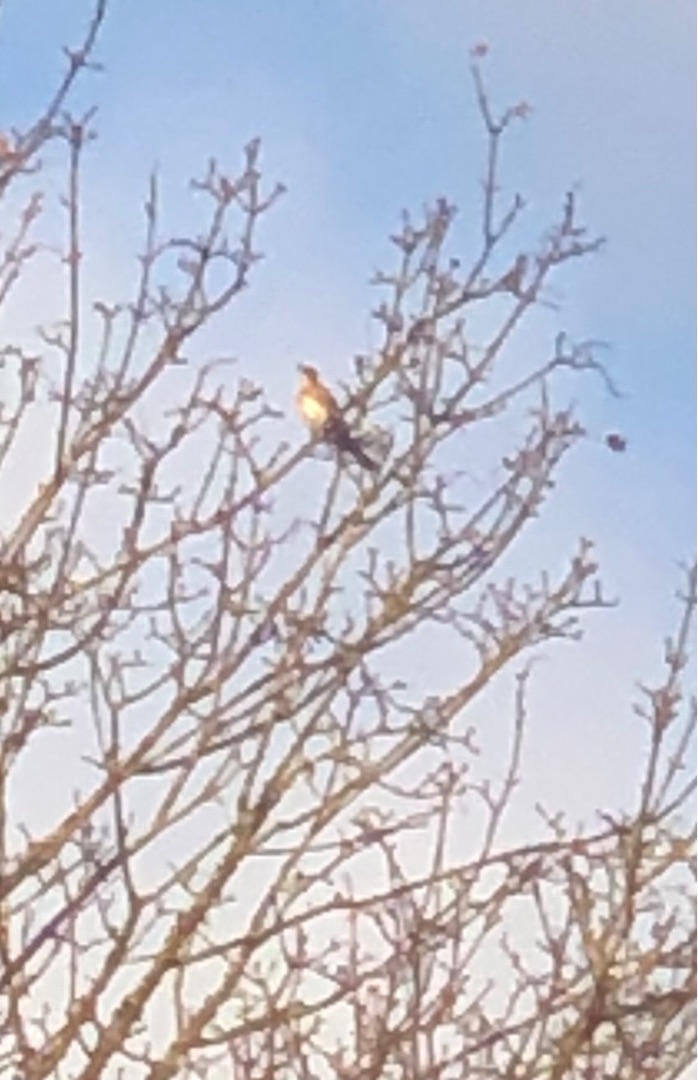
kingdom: Animalia
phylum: Chordata
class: Aves
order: Passeriformes
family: Turdidae
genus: Turdus
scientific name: Turdus pilaris
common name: Sjagger
